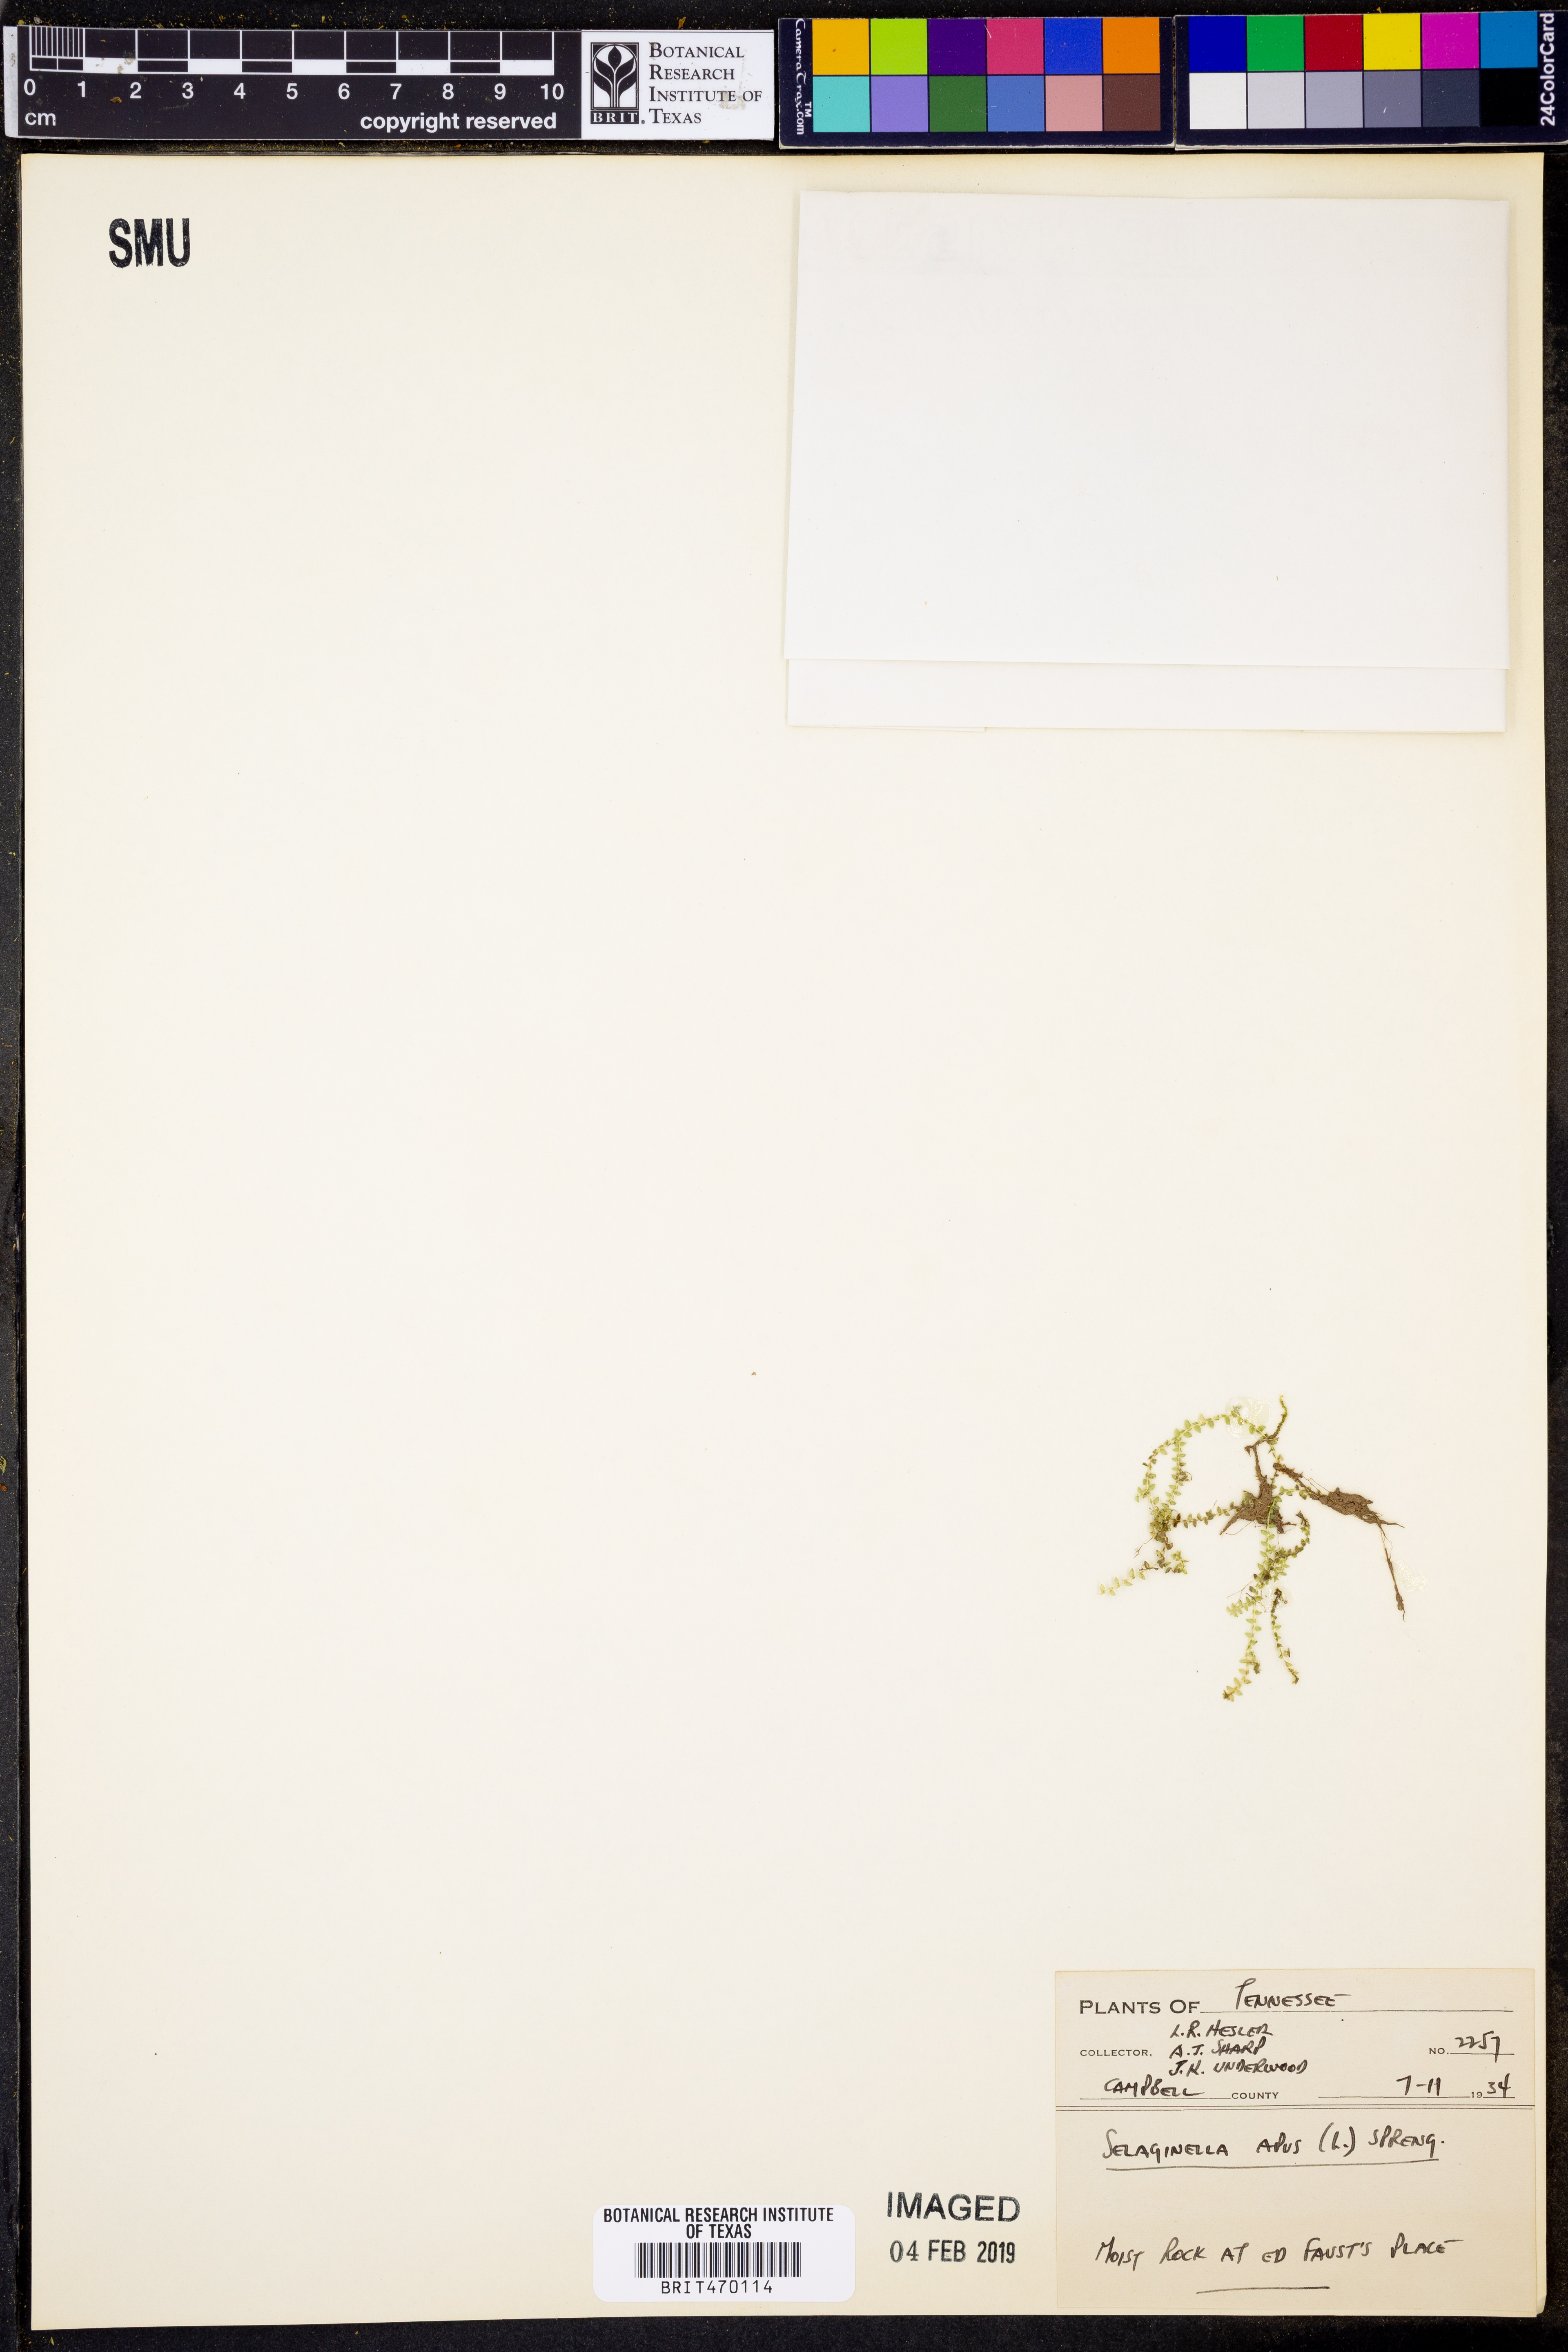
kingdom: Plantae
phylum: Tracheophyta
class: Lycopodiopsida
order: Selaginellales
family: Selaginellaceae
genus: Selaginella
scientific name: Selaginella apoda
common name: Creeping spikemoss
